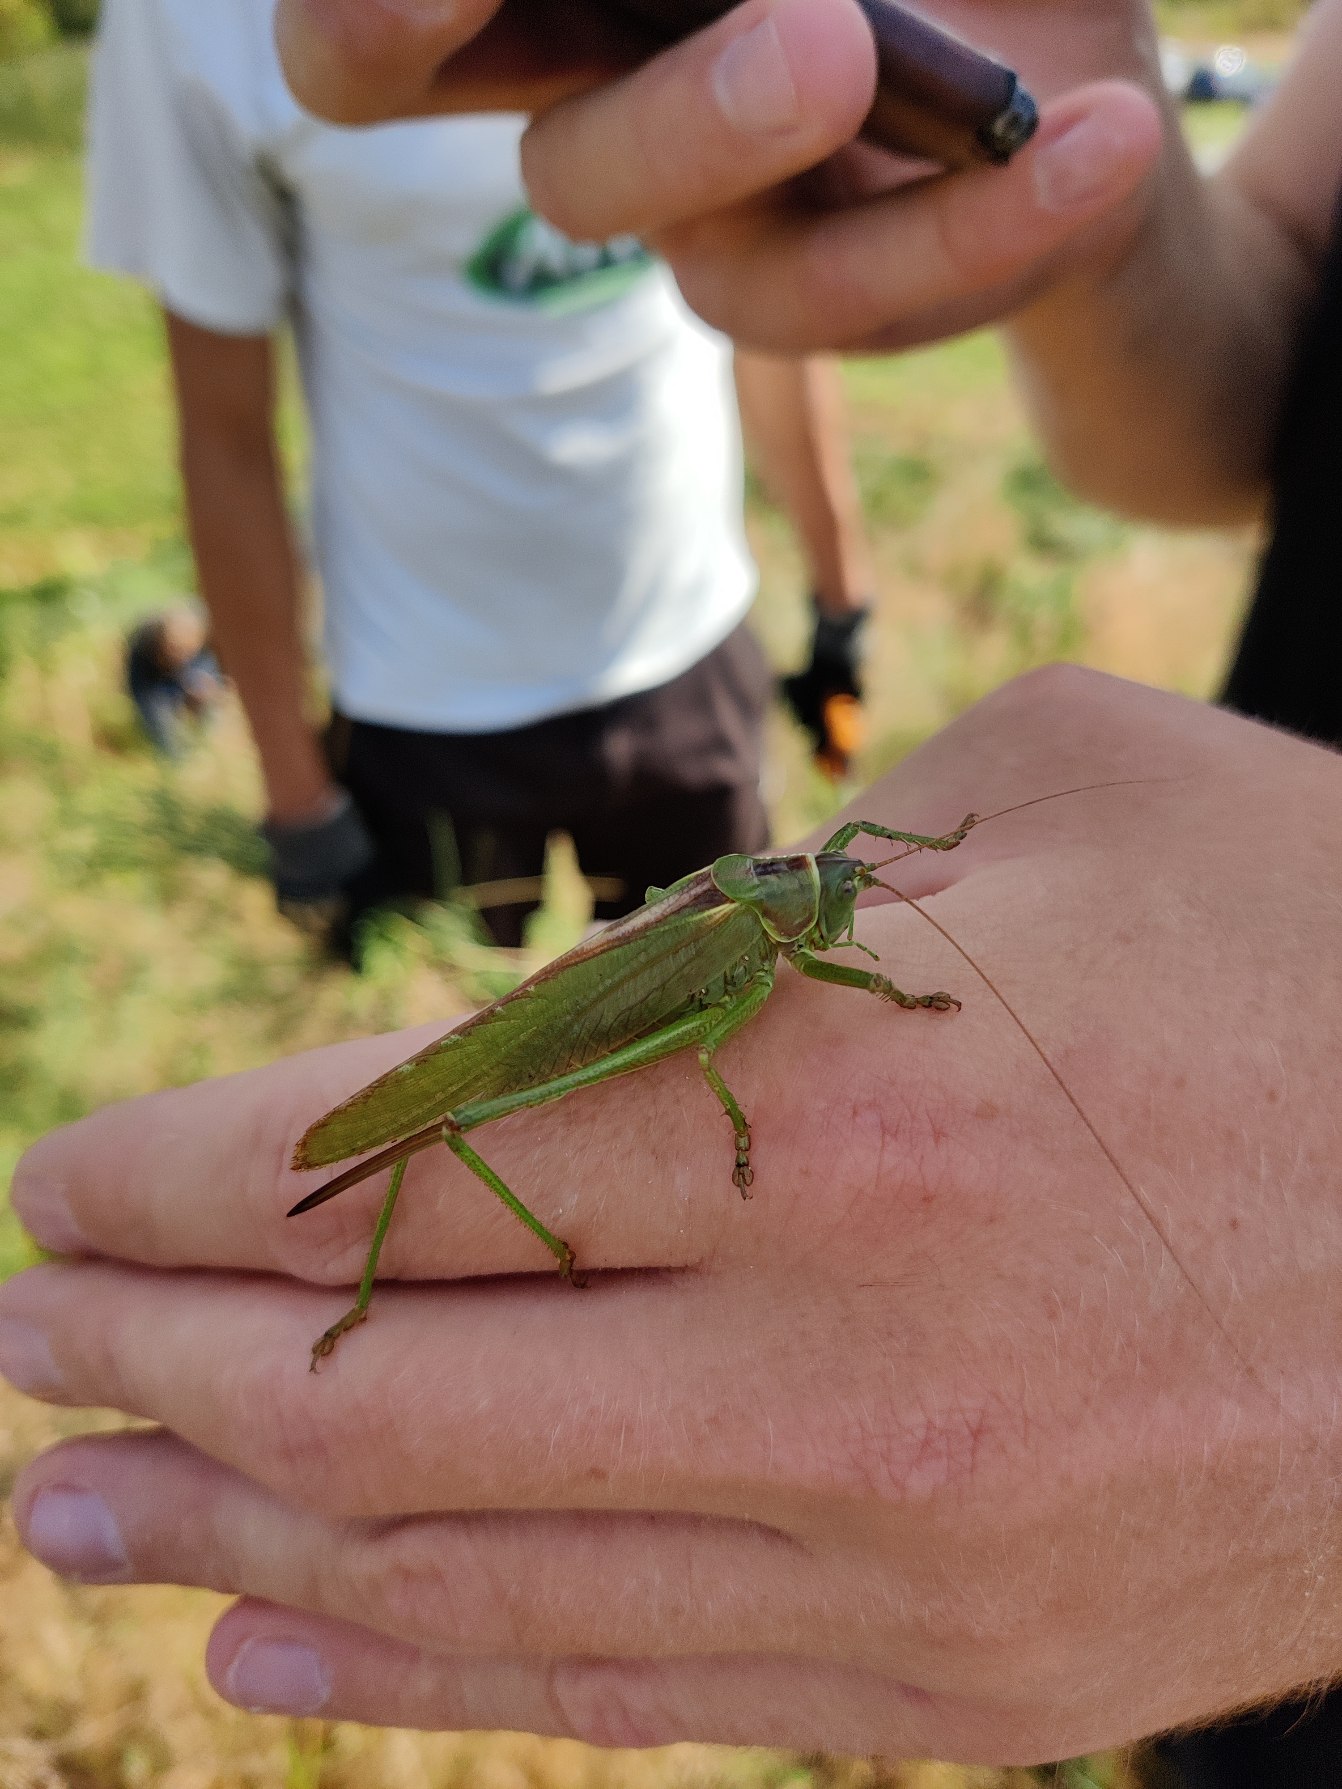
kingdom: Animalia
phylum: Arthropoda
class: Insecta
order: Orthoptera
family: Tettigoniidae
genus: Tettigonia
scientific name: Tettigonia viridissima
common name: Stor grøn løvgræshoppe
